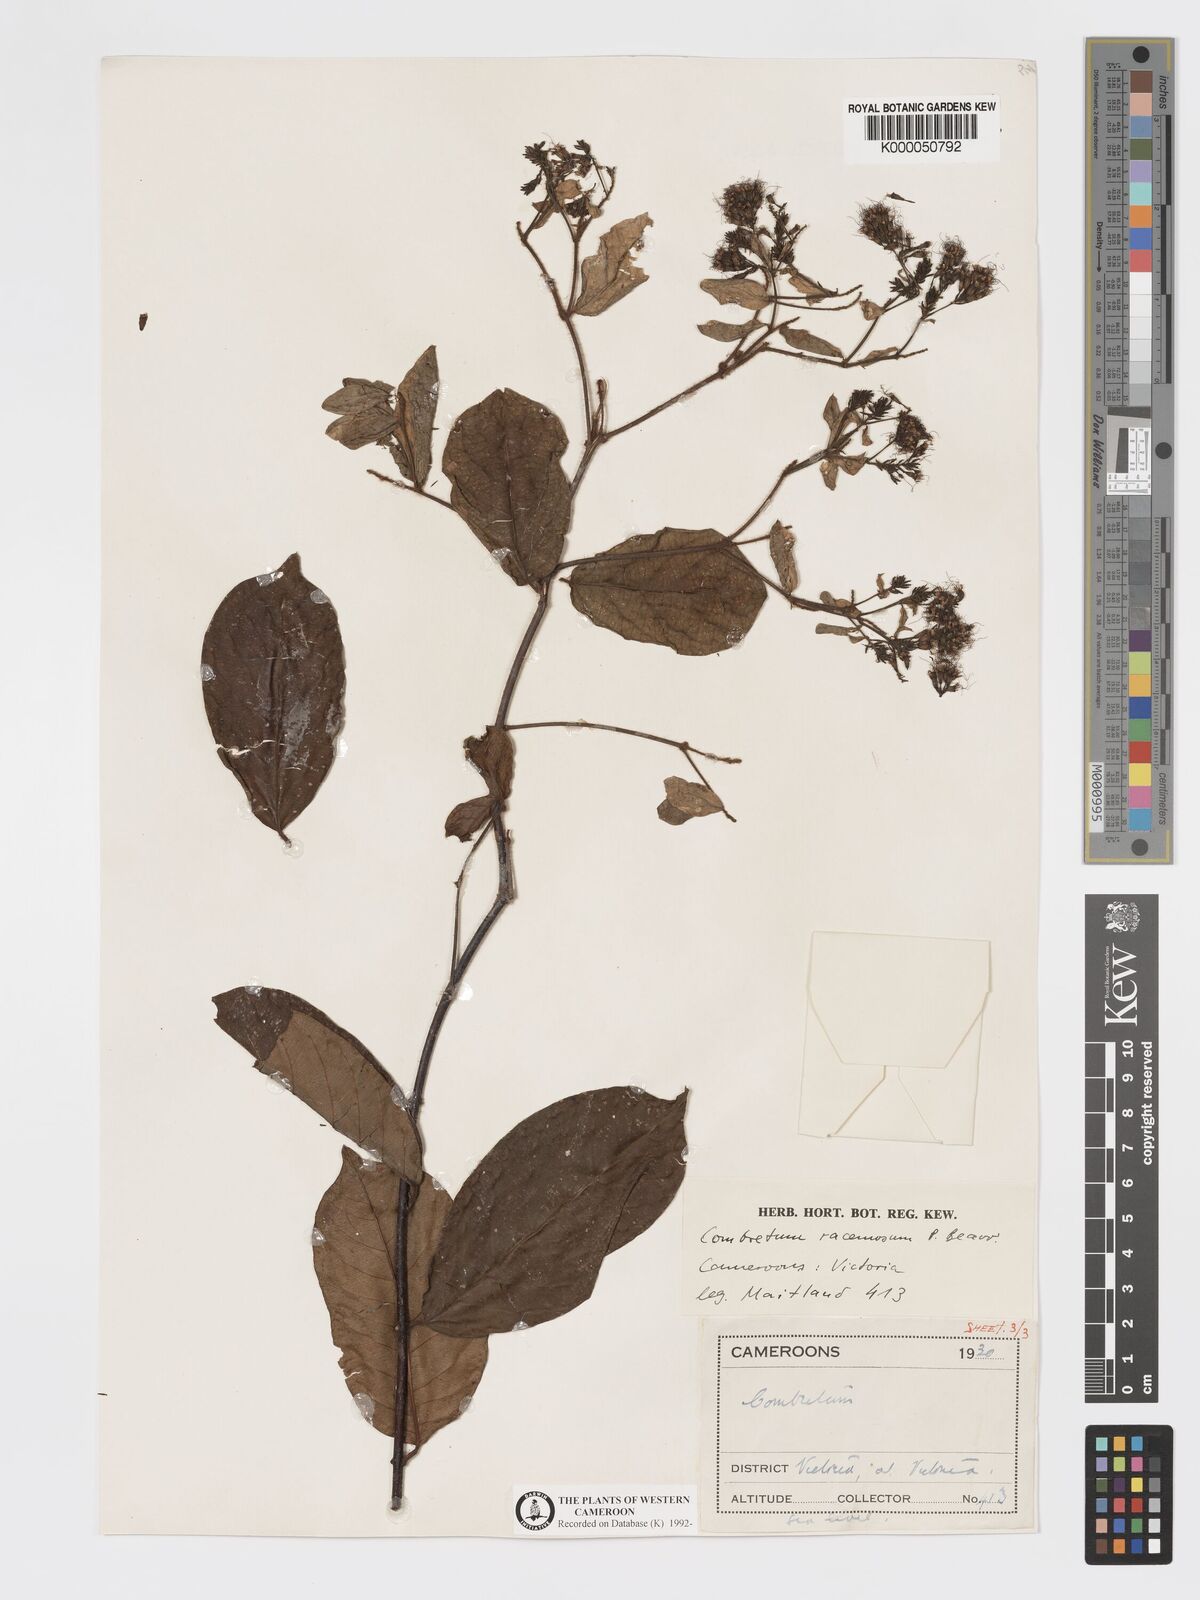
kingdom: Plantae
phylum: Tracheophyta
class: Magnoliopsida
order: Myrtales
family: Combretaceae
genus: Combretum
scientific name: Combretum racemosum
